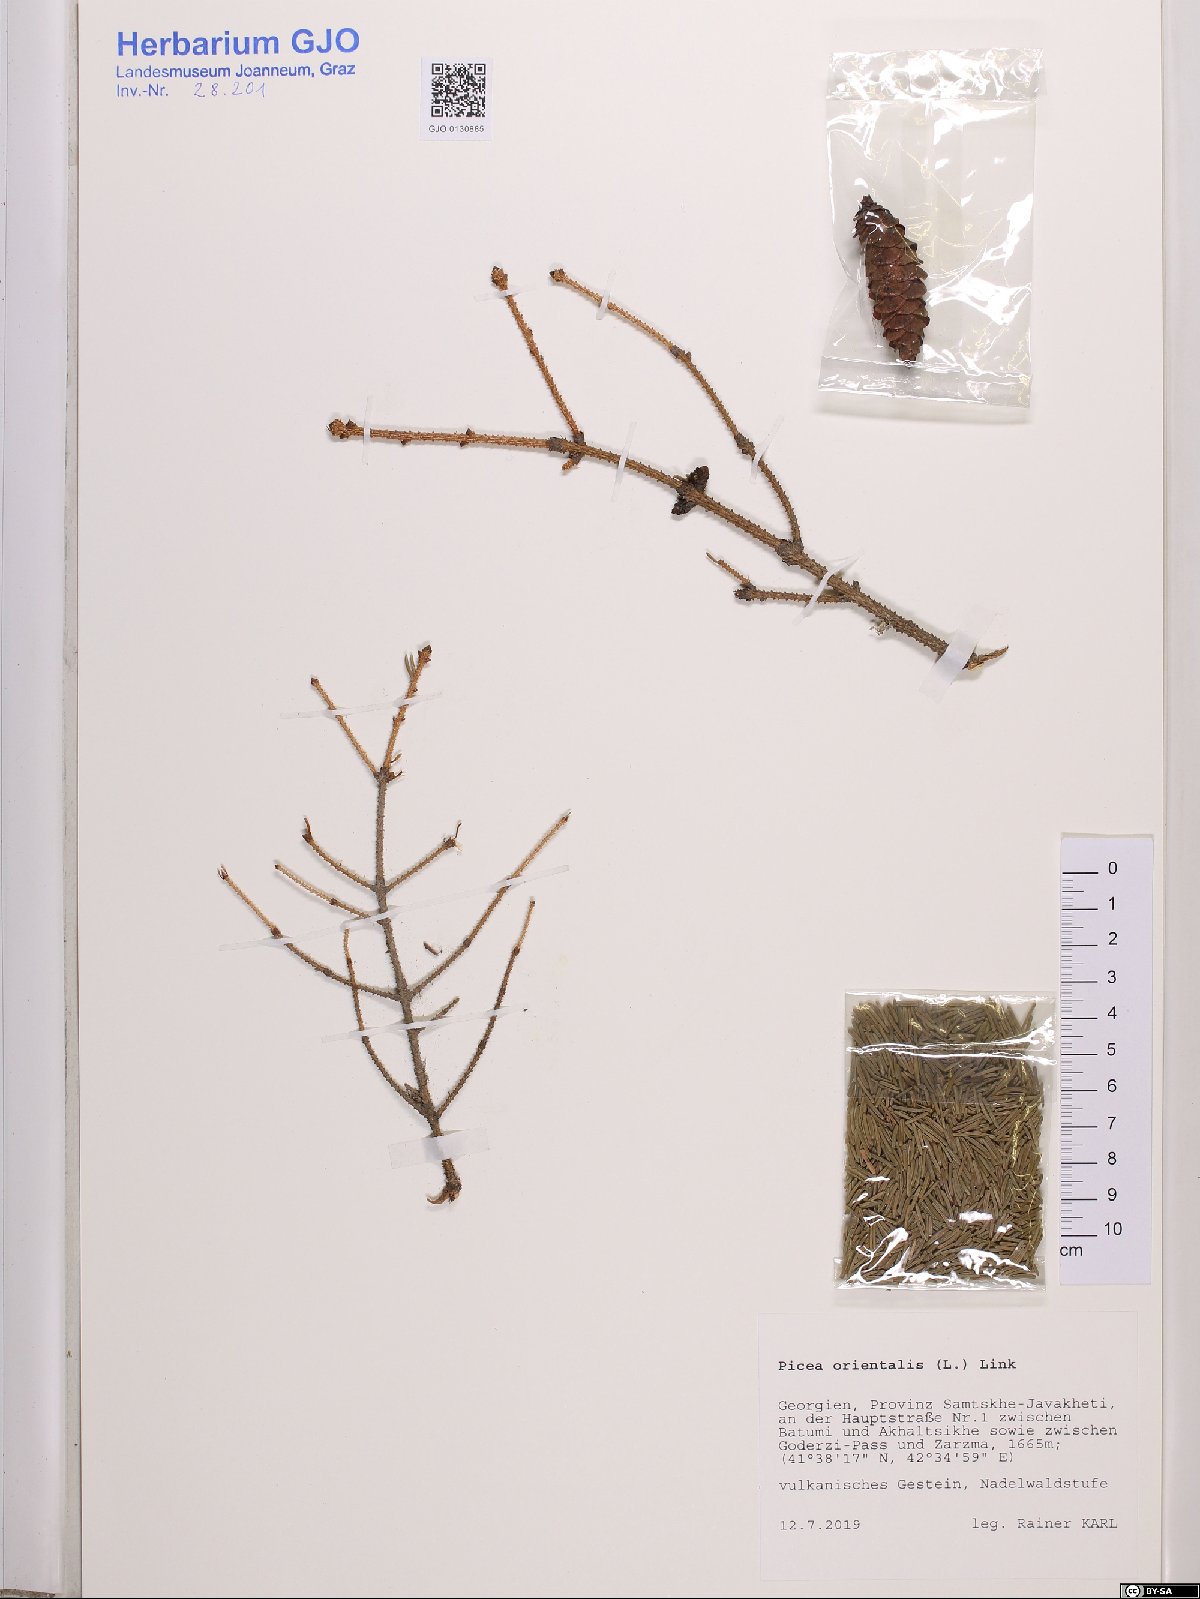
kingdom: Plantae
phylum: Tracheophyta
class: Pinopsida
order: Pinales
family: Pinaceae
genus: Picea
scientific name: Picea orientalis
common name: Oriental spruce
